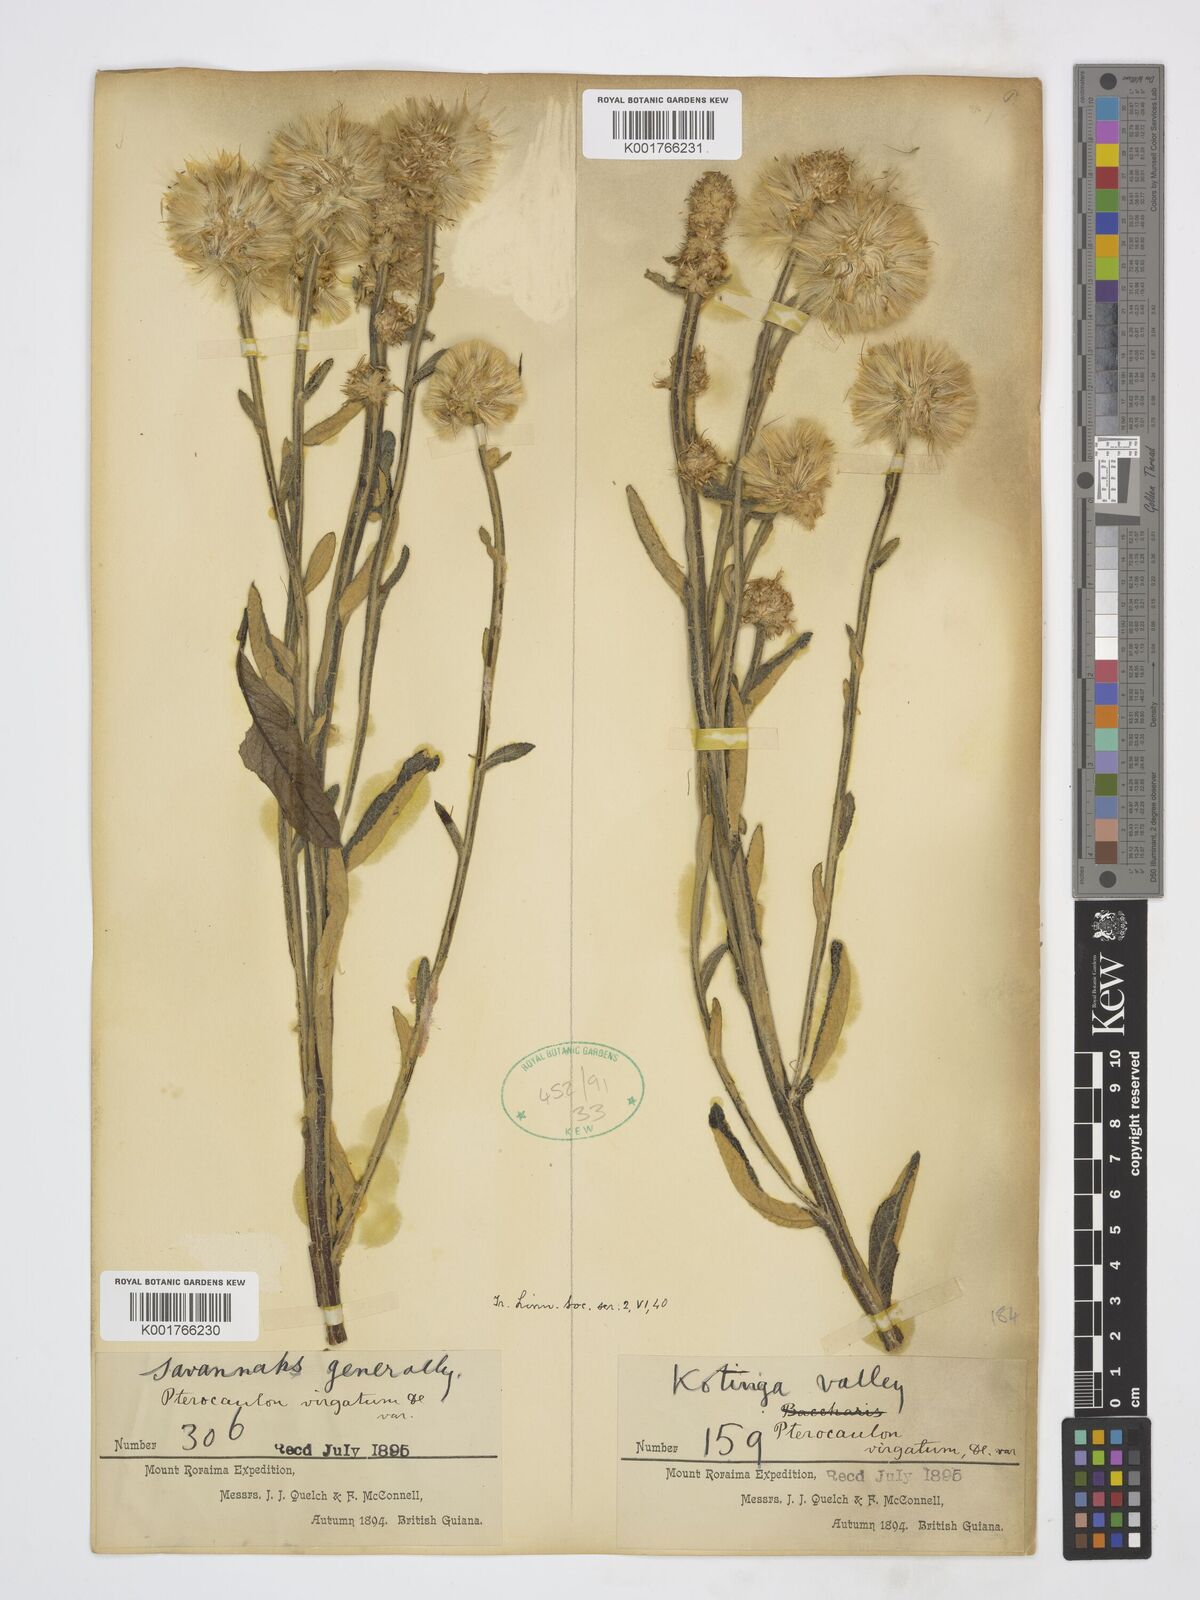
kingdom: Plantae
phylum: Tracheophyta
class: Magnoliopsida
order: Asterales
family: Asteraceae
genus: Pterocaulon
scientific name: Pterocaulon virgatum
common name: Wand blackroot
